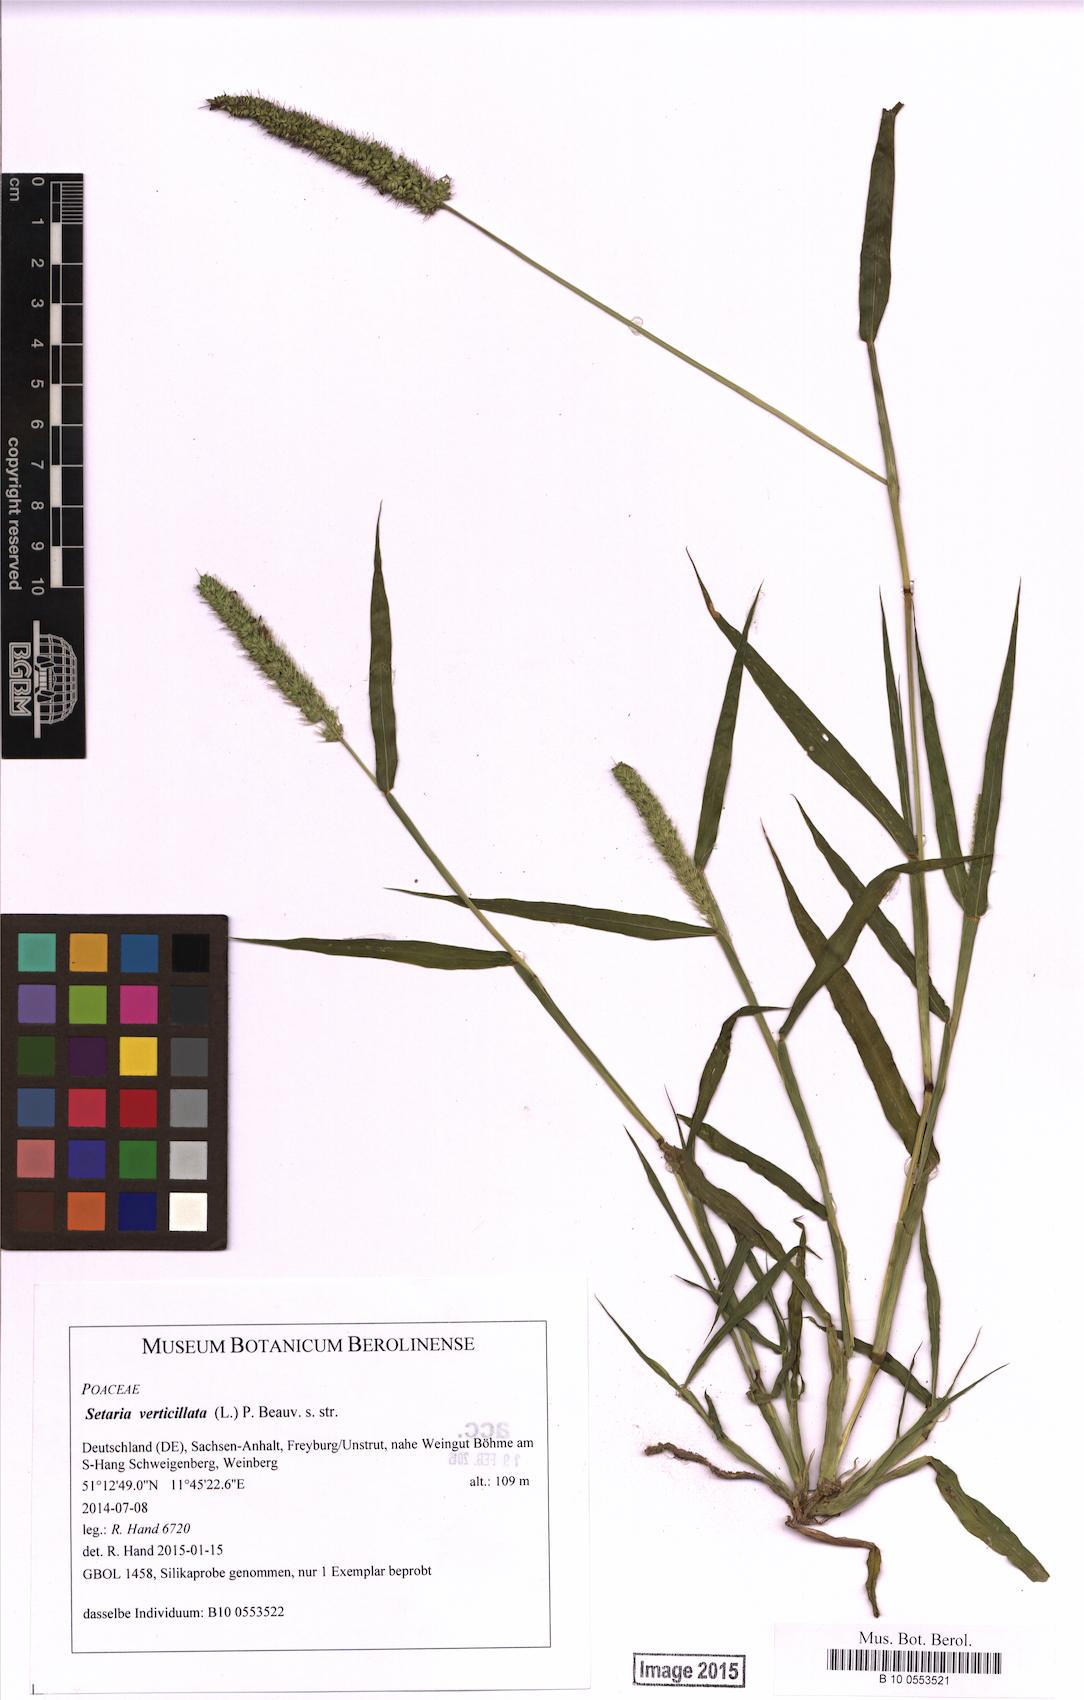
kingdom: Plantae
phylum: Tracheophyta
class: Liliopsida
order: Poales
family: Poaceae
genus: Setaria
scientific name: Setaria verticillata
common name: Hooked bristlegrass
